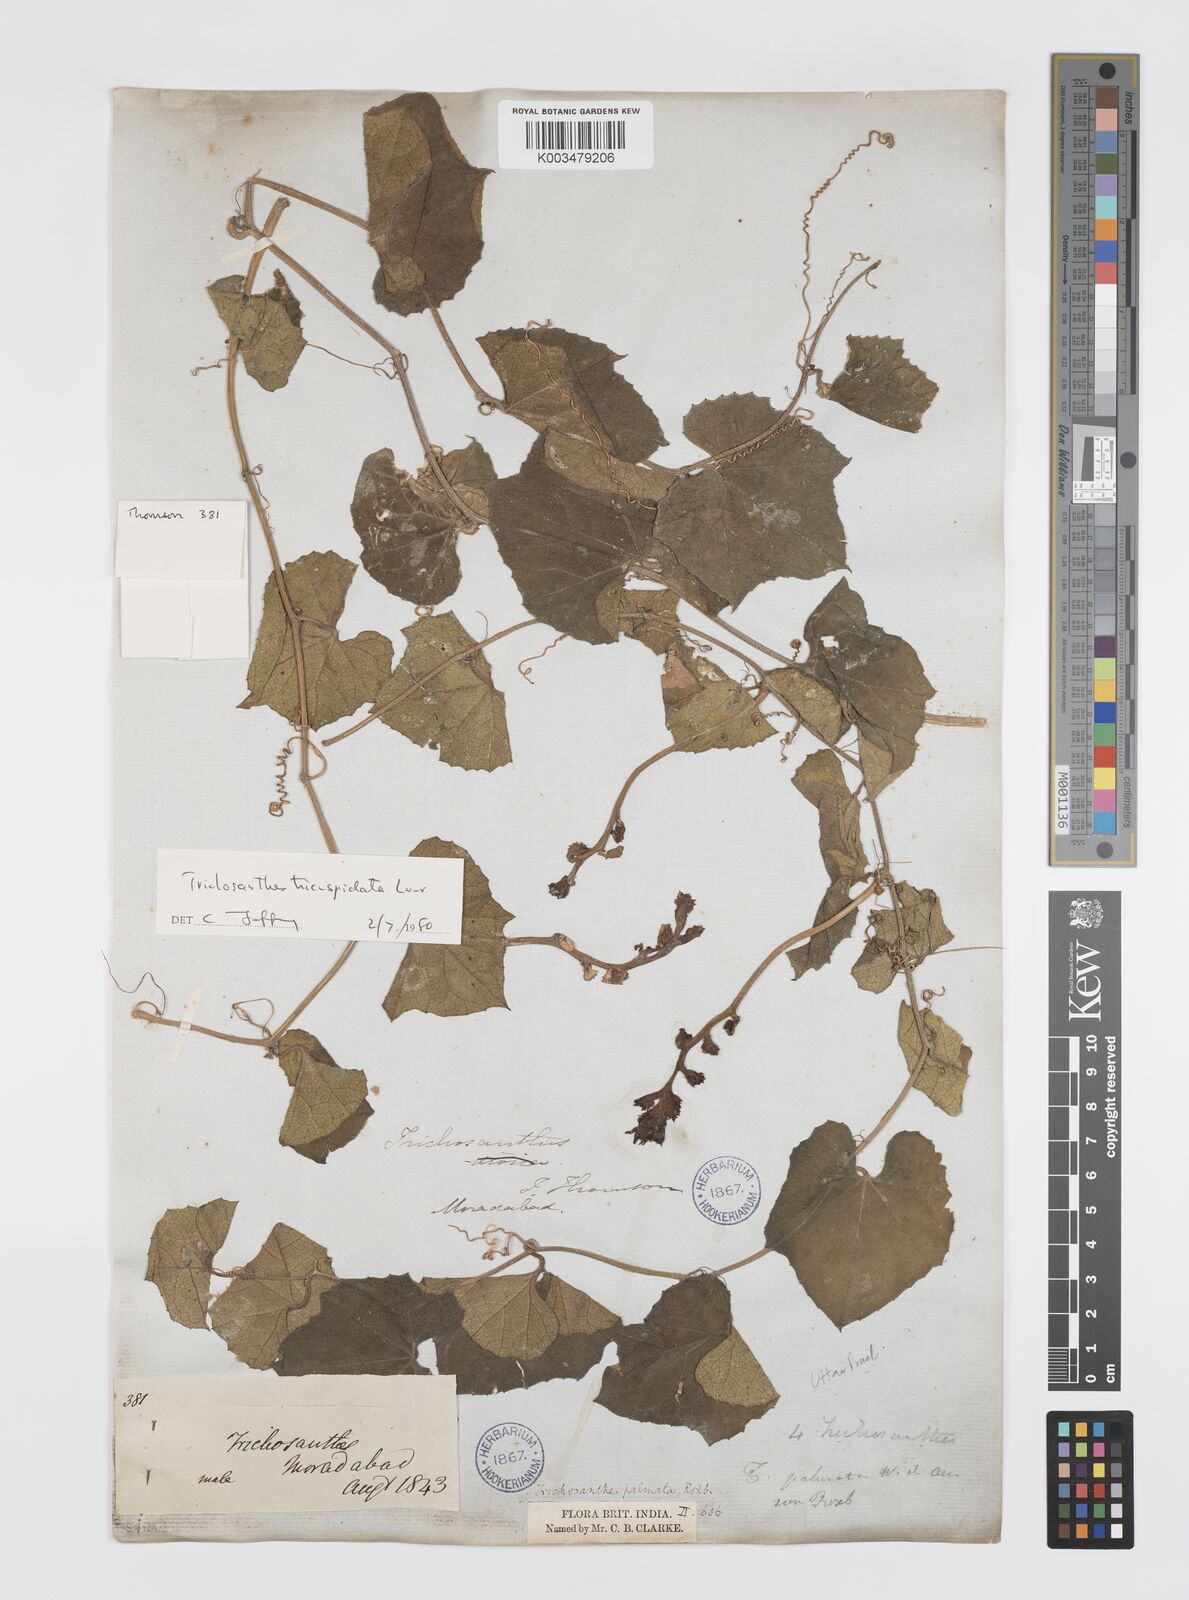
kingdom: Plantae
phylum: Tracheophyta
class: Magnoliopsida
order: Cucurbitales
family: Cucurbitaceae
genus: Trichosanthes
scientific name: Trichosanthes tricuspidata
